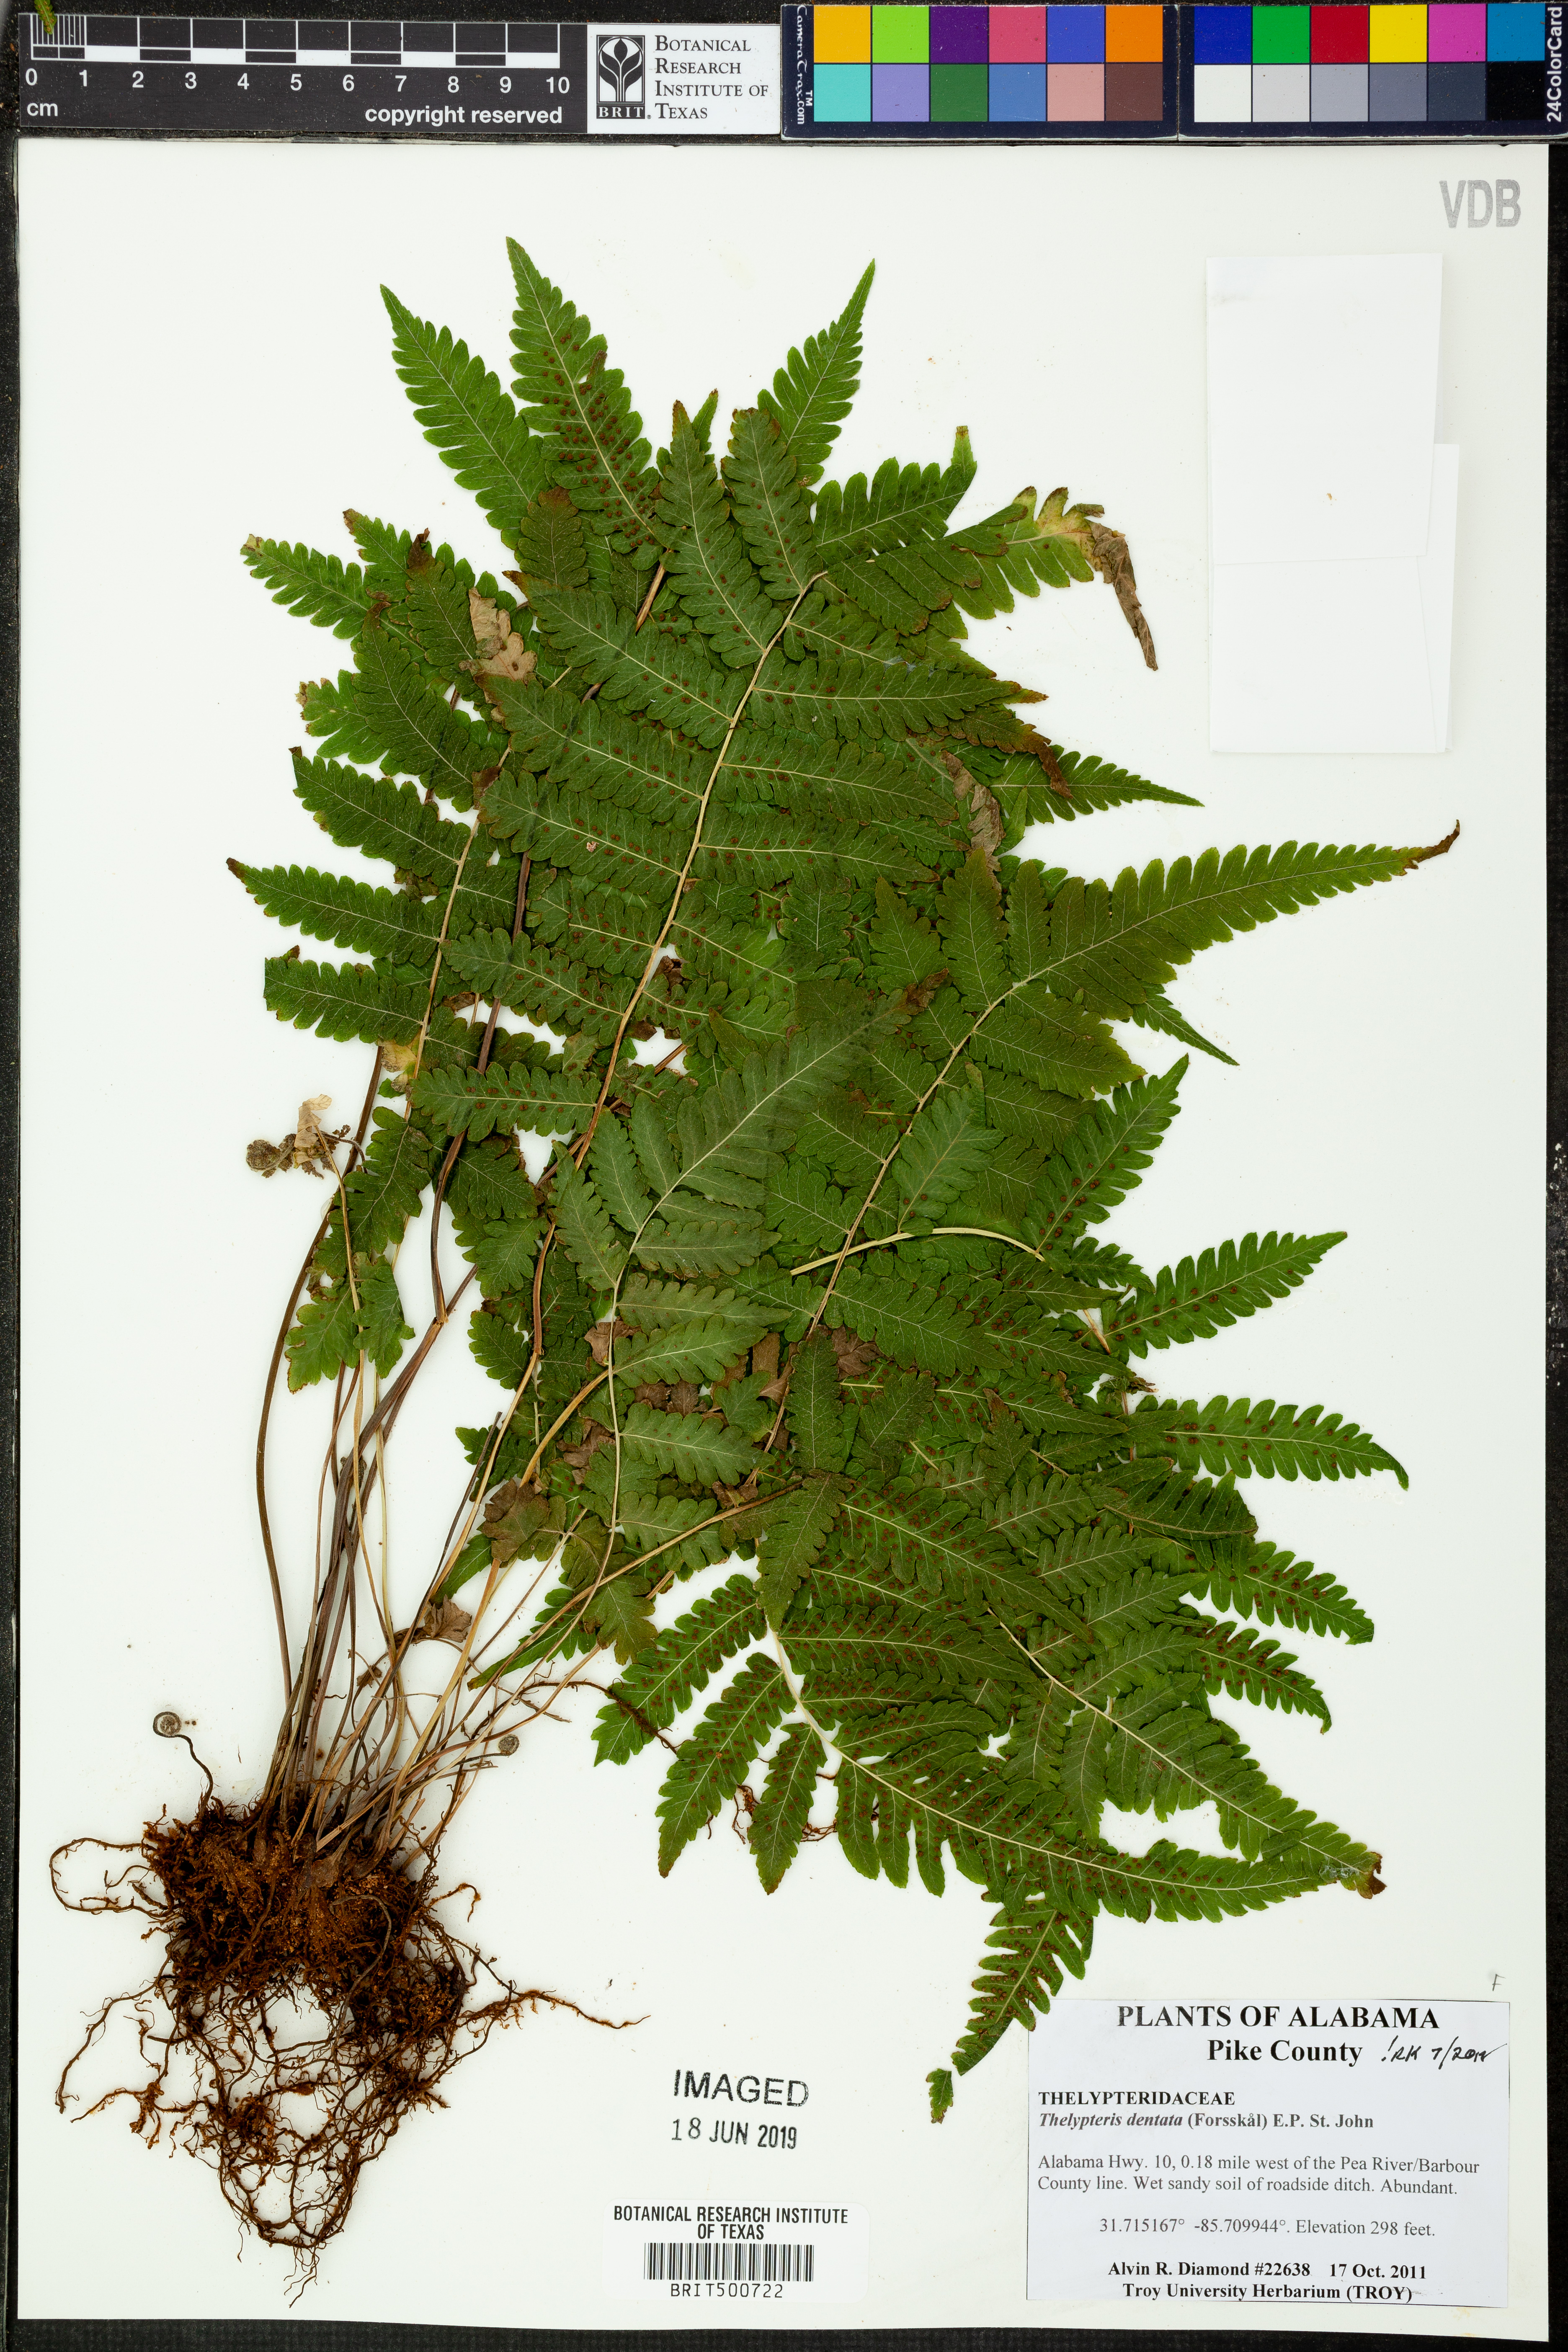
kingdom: Plantae
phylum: Tracheophyta
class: Polypodiopsida
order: Polypodiales
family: Thelypteridaceae
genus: Christella
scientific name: Christella dentata
